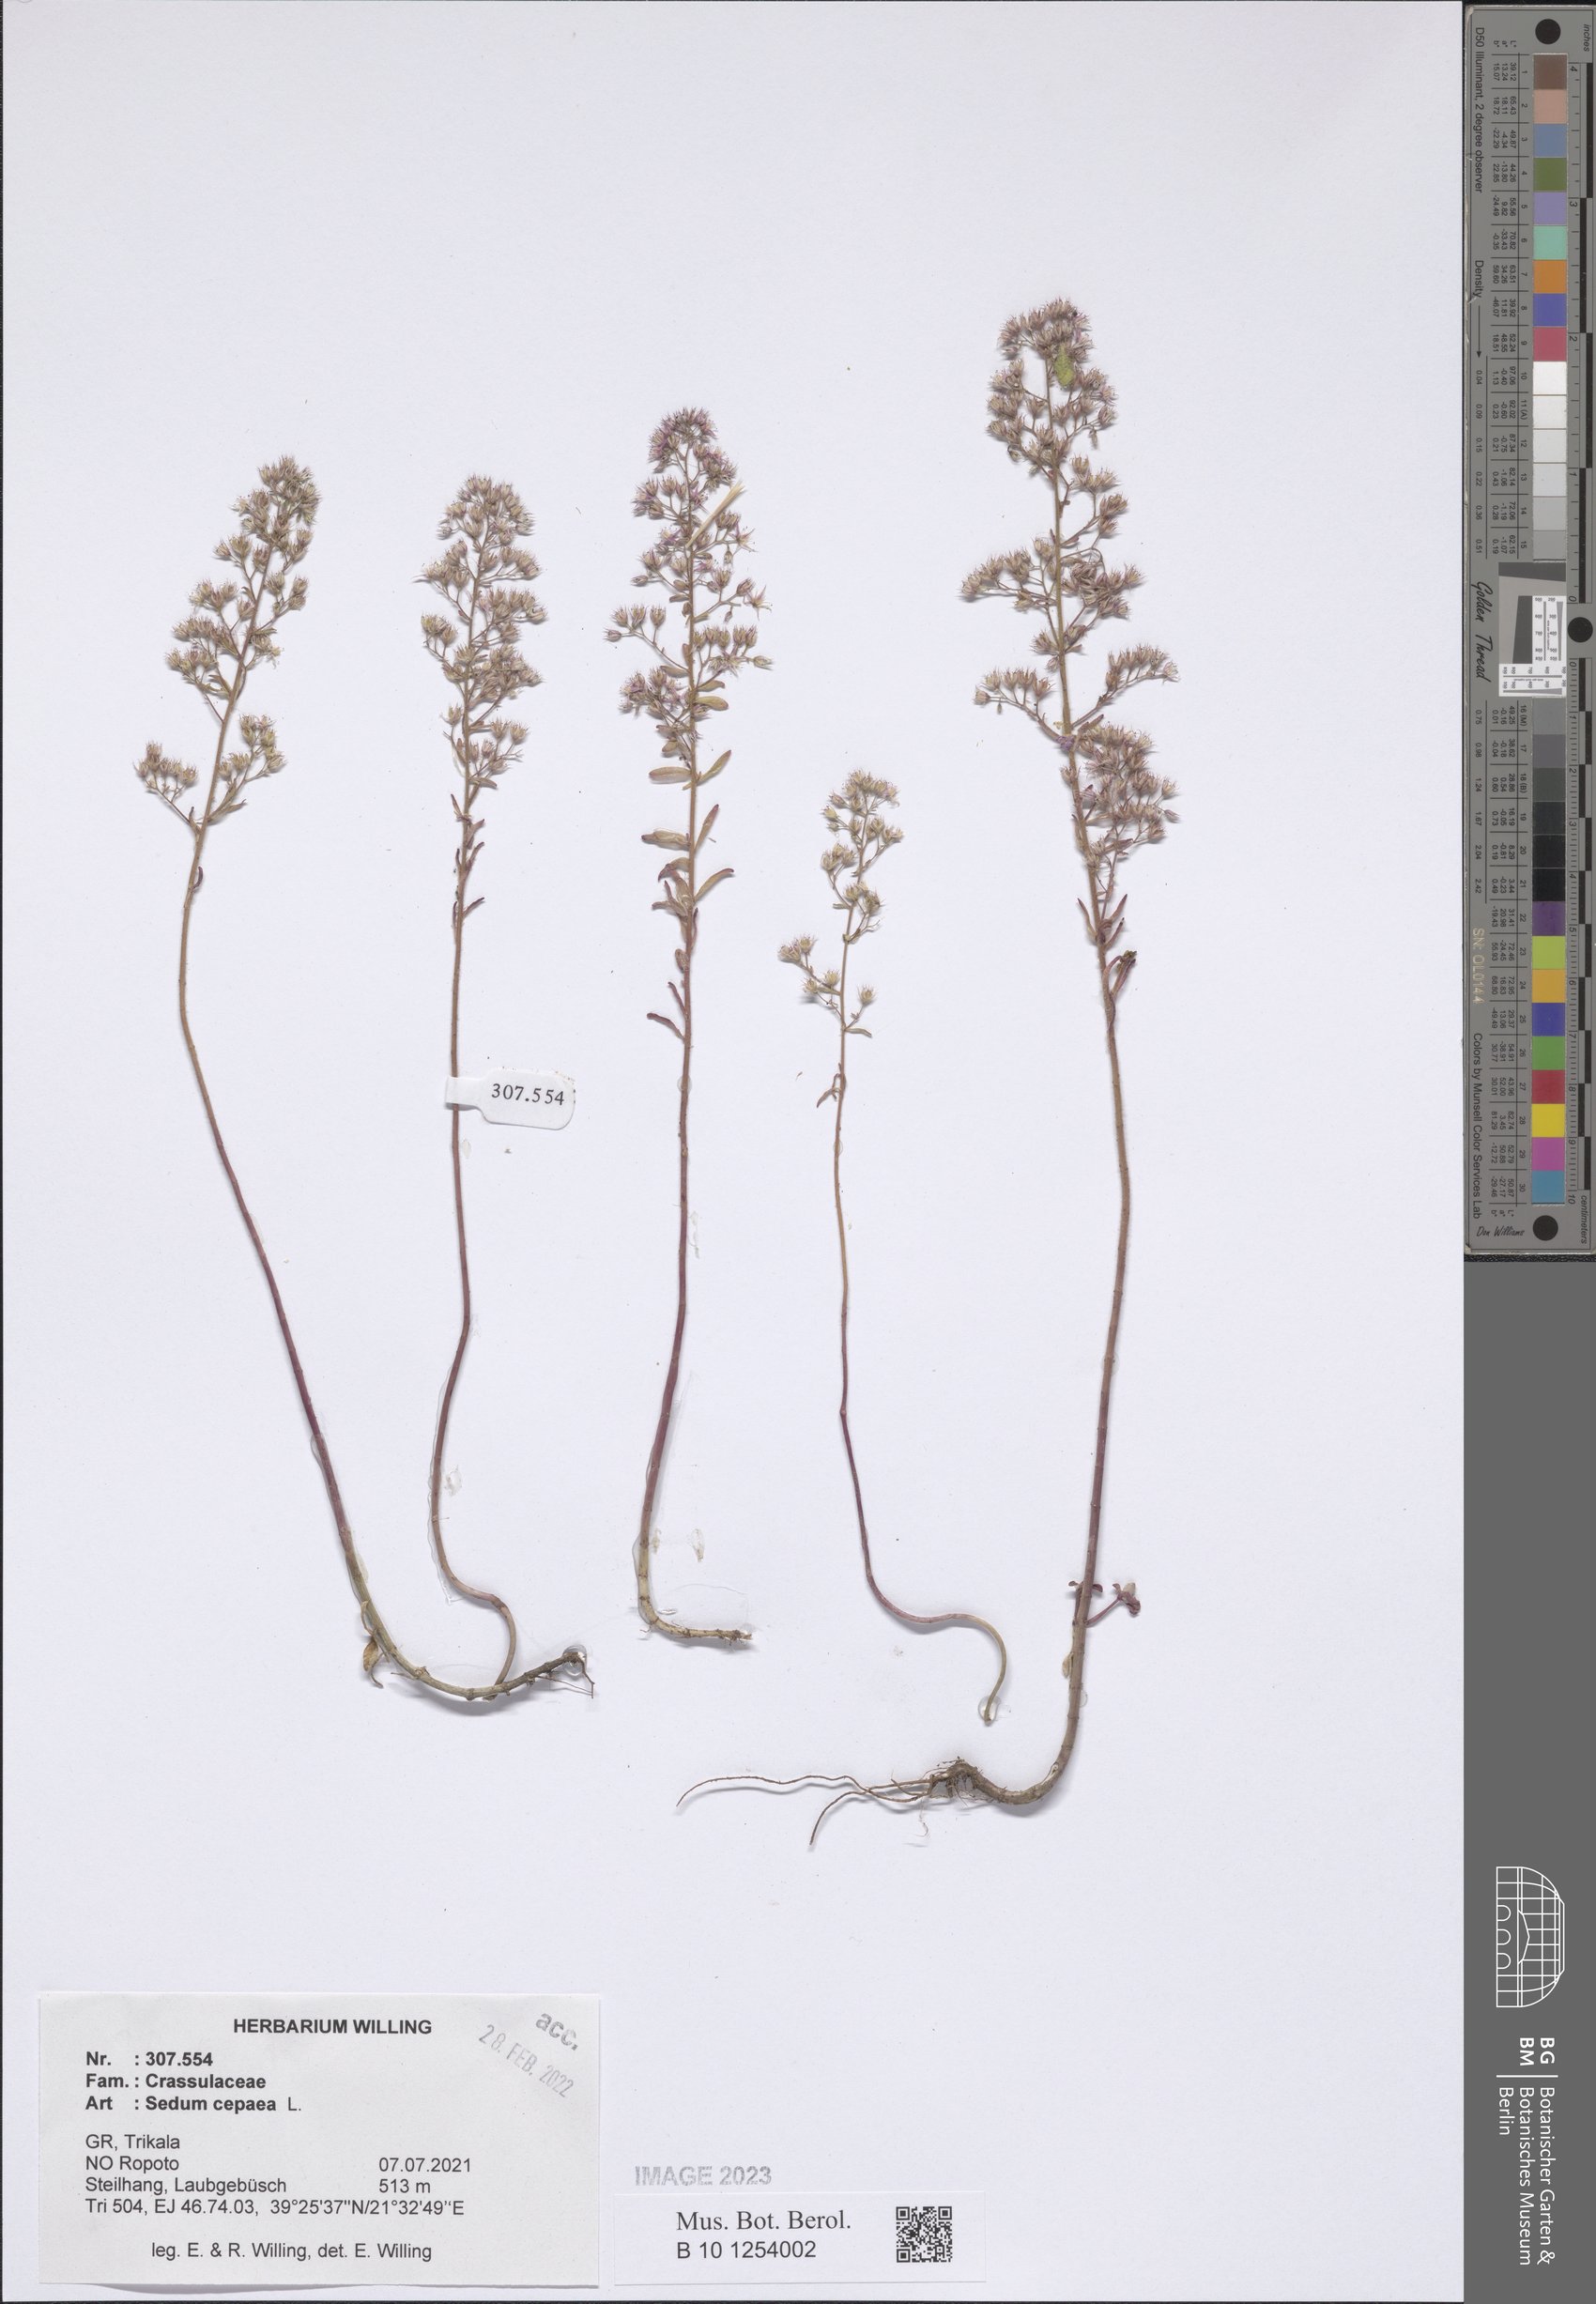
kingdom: Plantae
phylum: Tracheophyta
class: Magnoliopsida
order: Saxifragales
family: Crassulaceae
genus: Sedum
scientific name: Sedum cepaea
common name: Pink stonecrop
